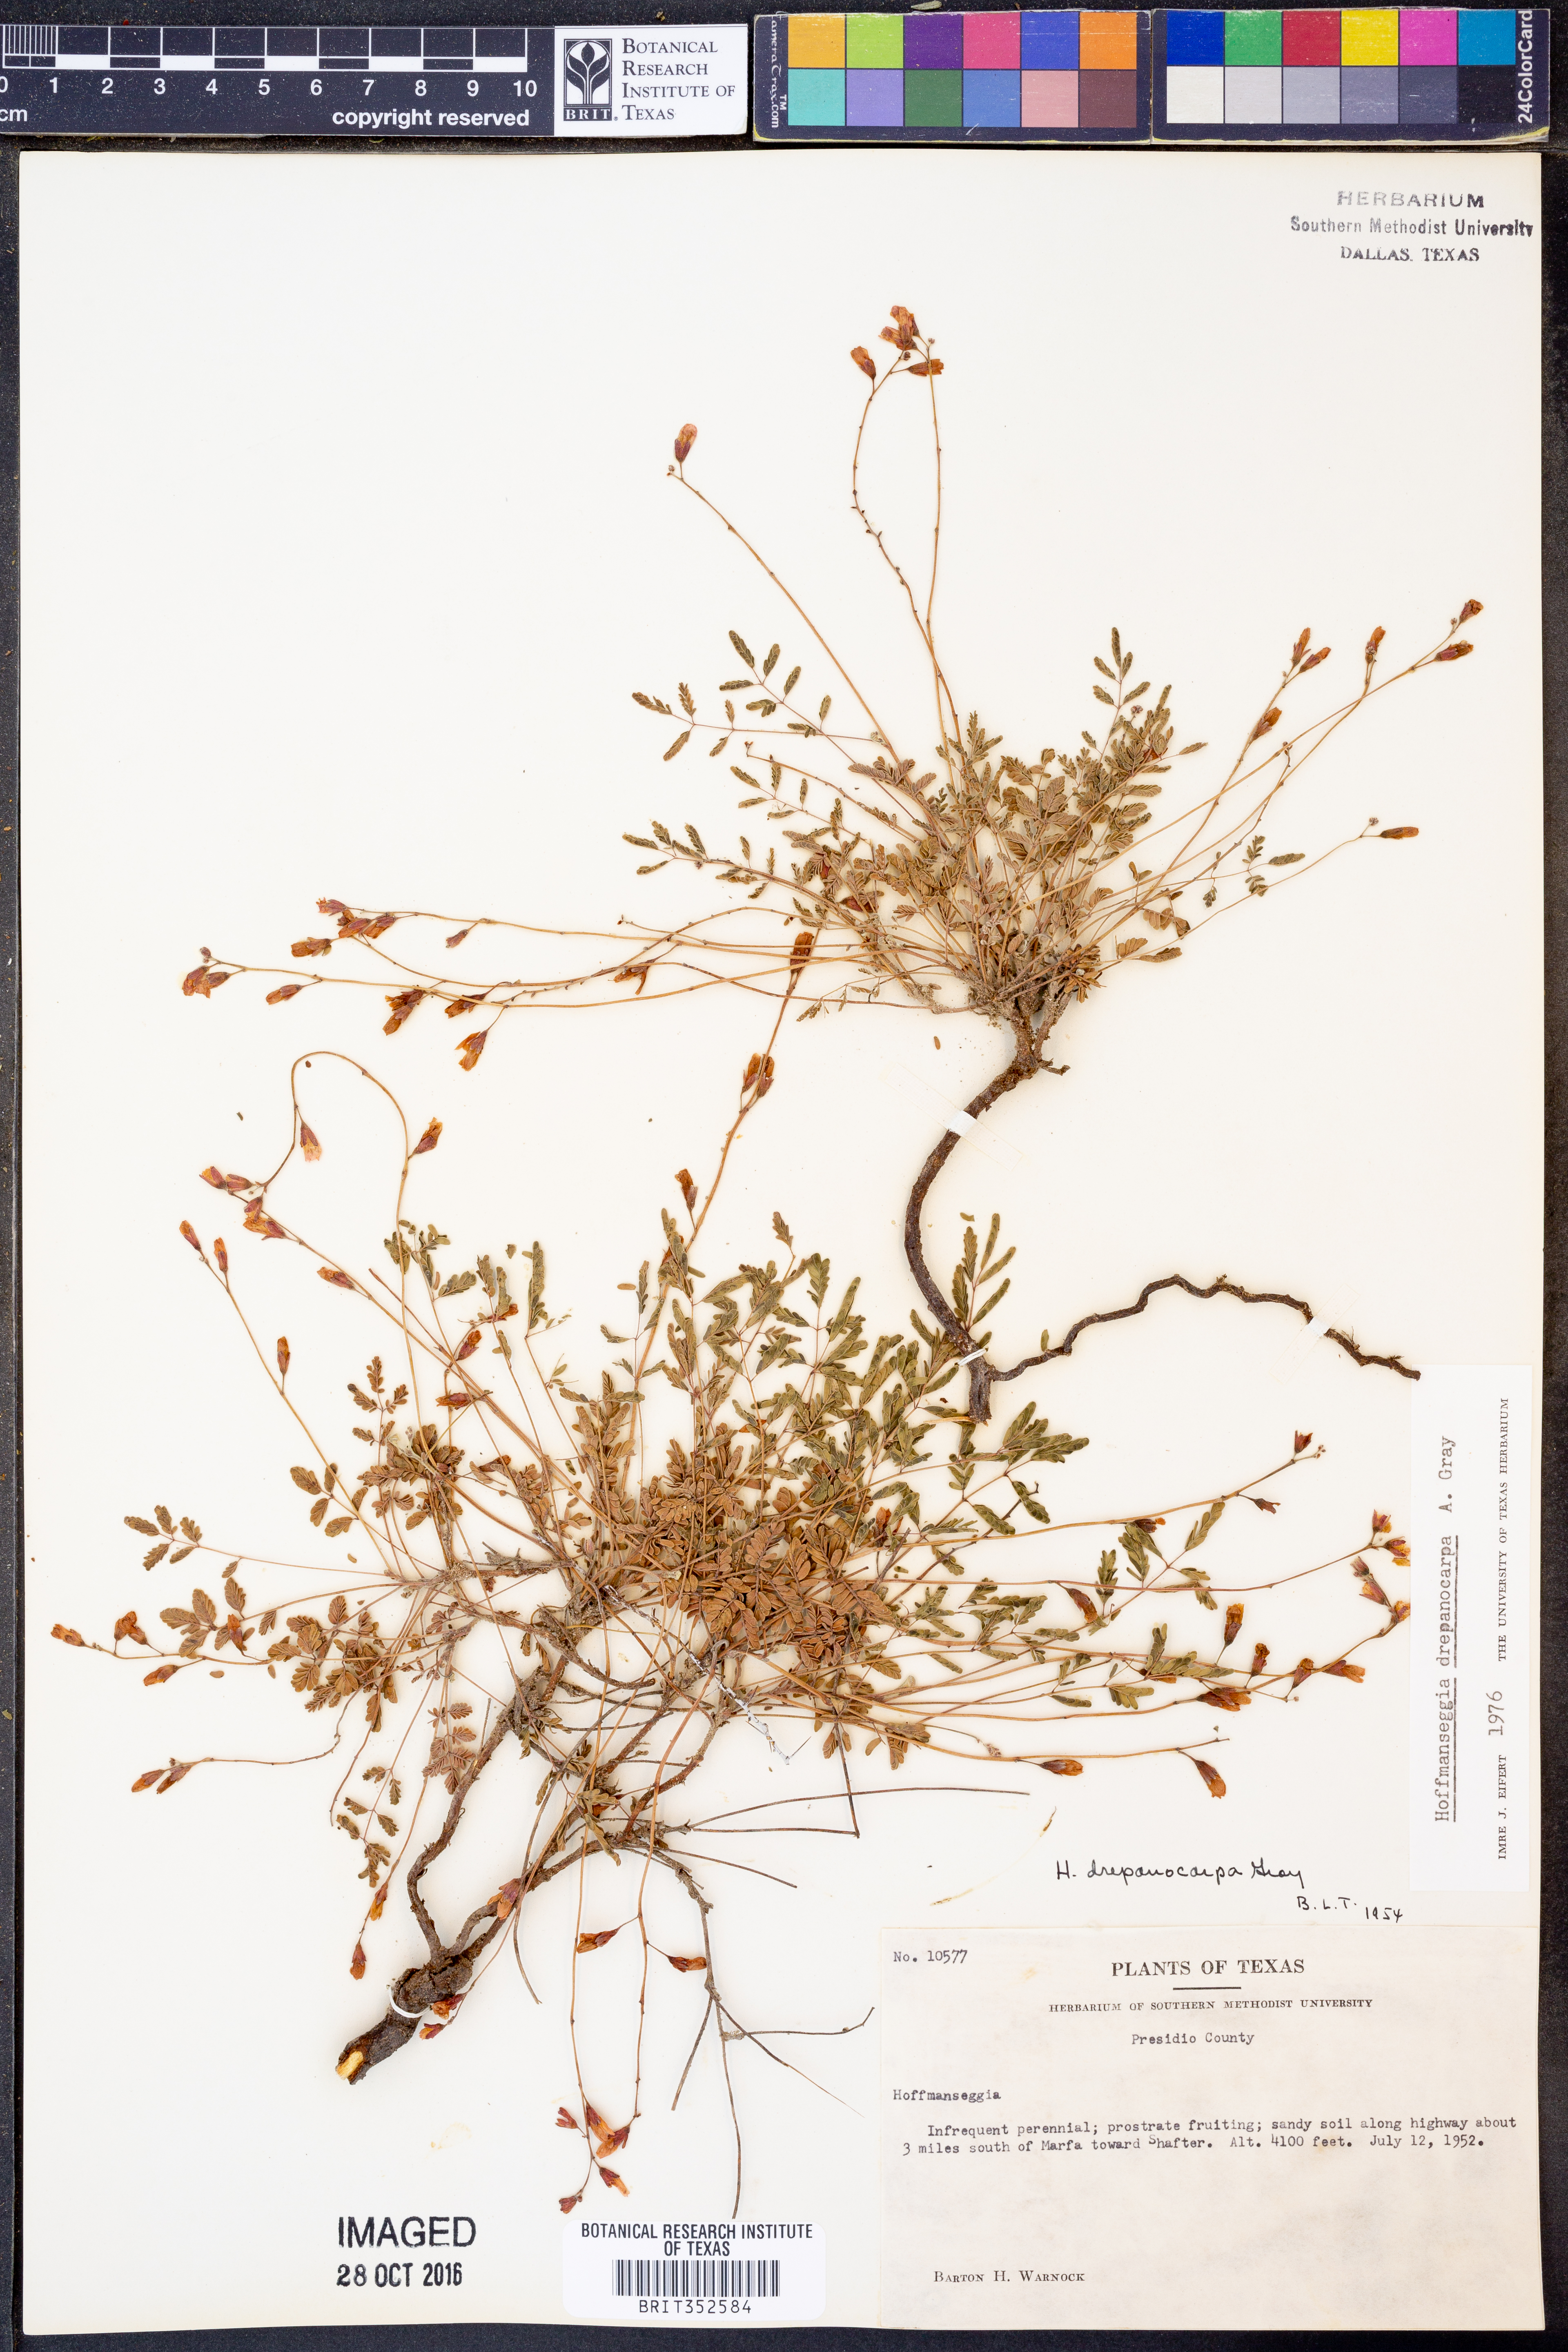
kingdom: Plantae
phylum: Tracheophyta
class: Magnoliopsida
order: Fabales
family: Fabaceae
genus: Hoffmannseggia
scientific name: Hoffmannseggia drepanocarpa
